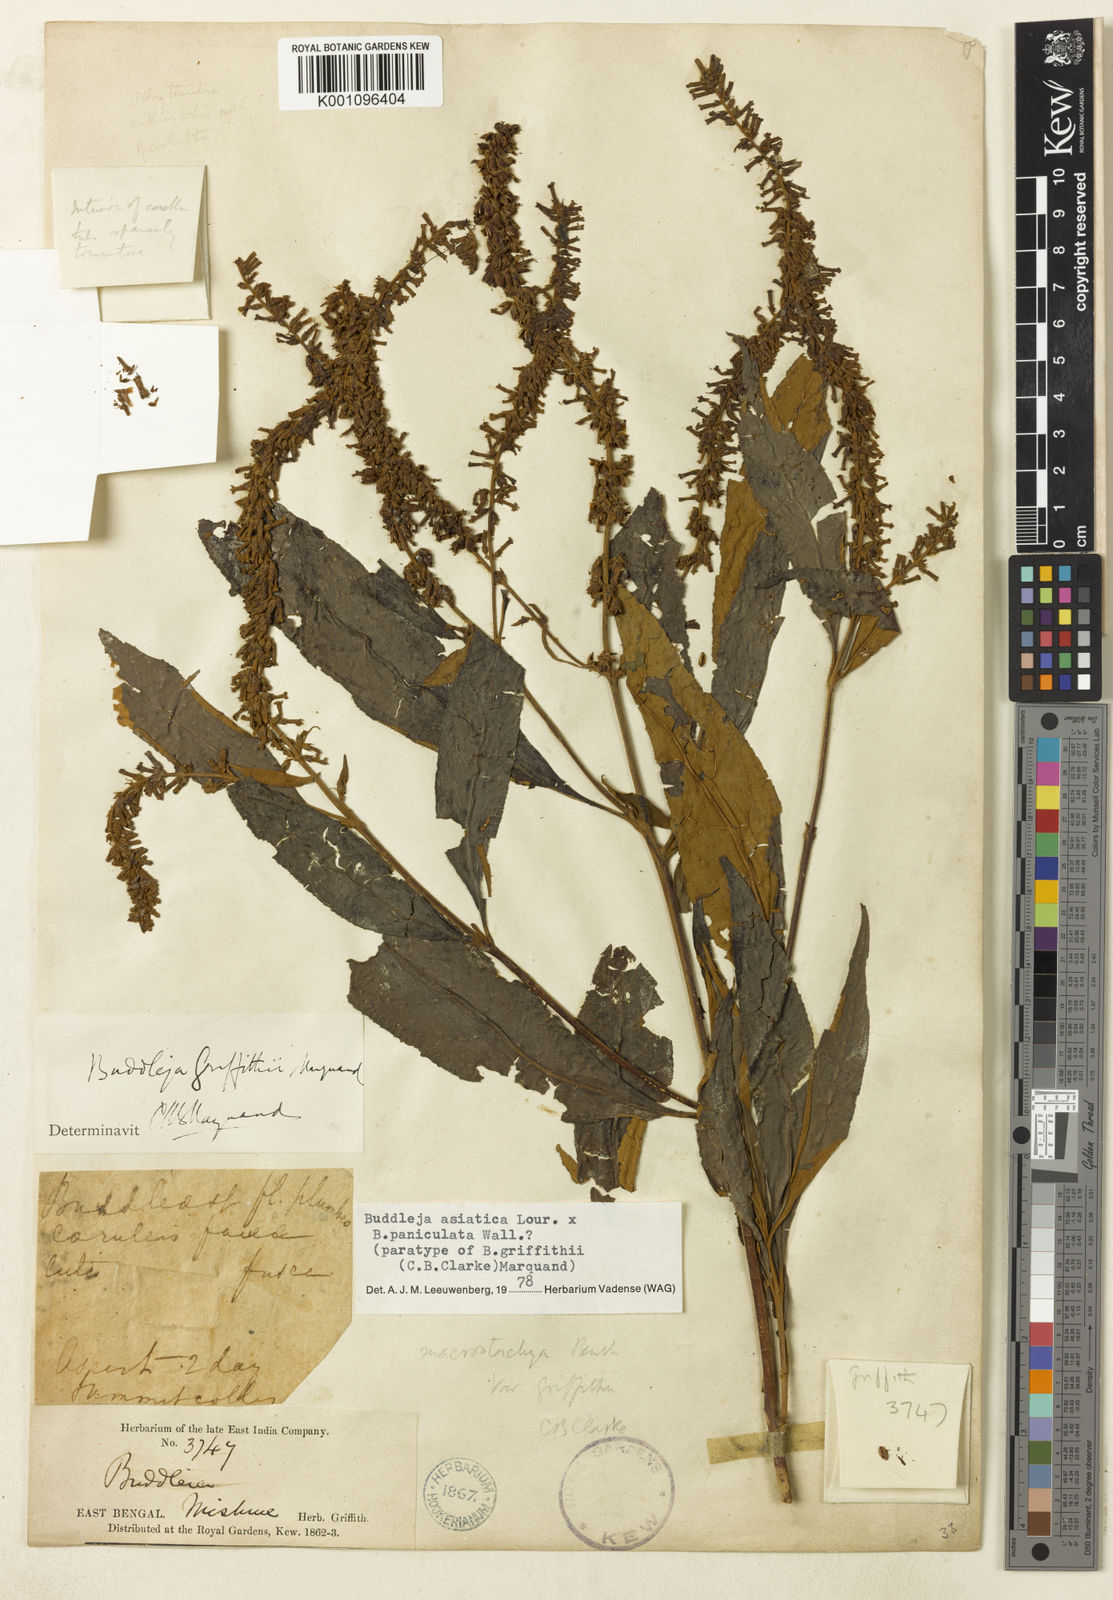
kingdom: Plantae
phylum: Tracheophyta
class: Magnoliopsida
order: Lamiales
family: Scrophulariaceae
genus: Buddleja
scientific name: Buddleja griffithii
